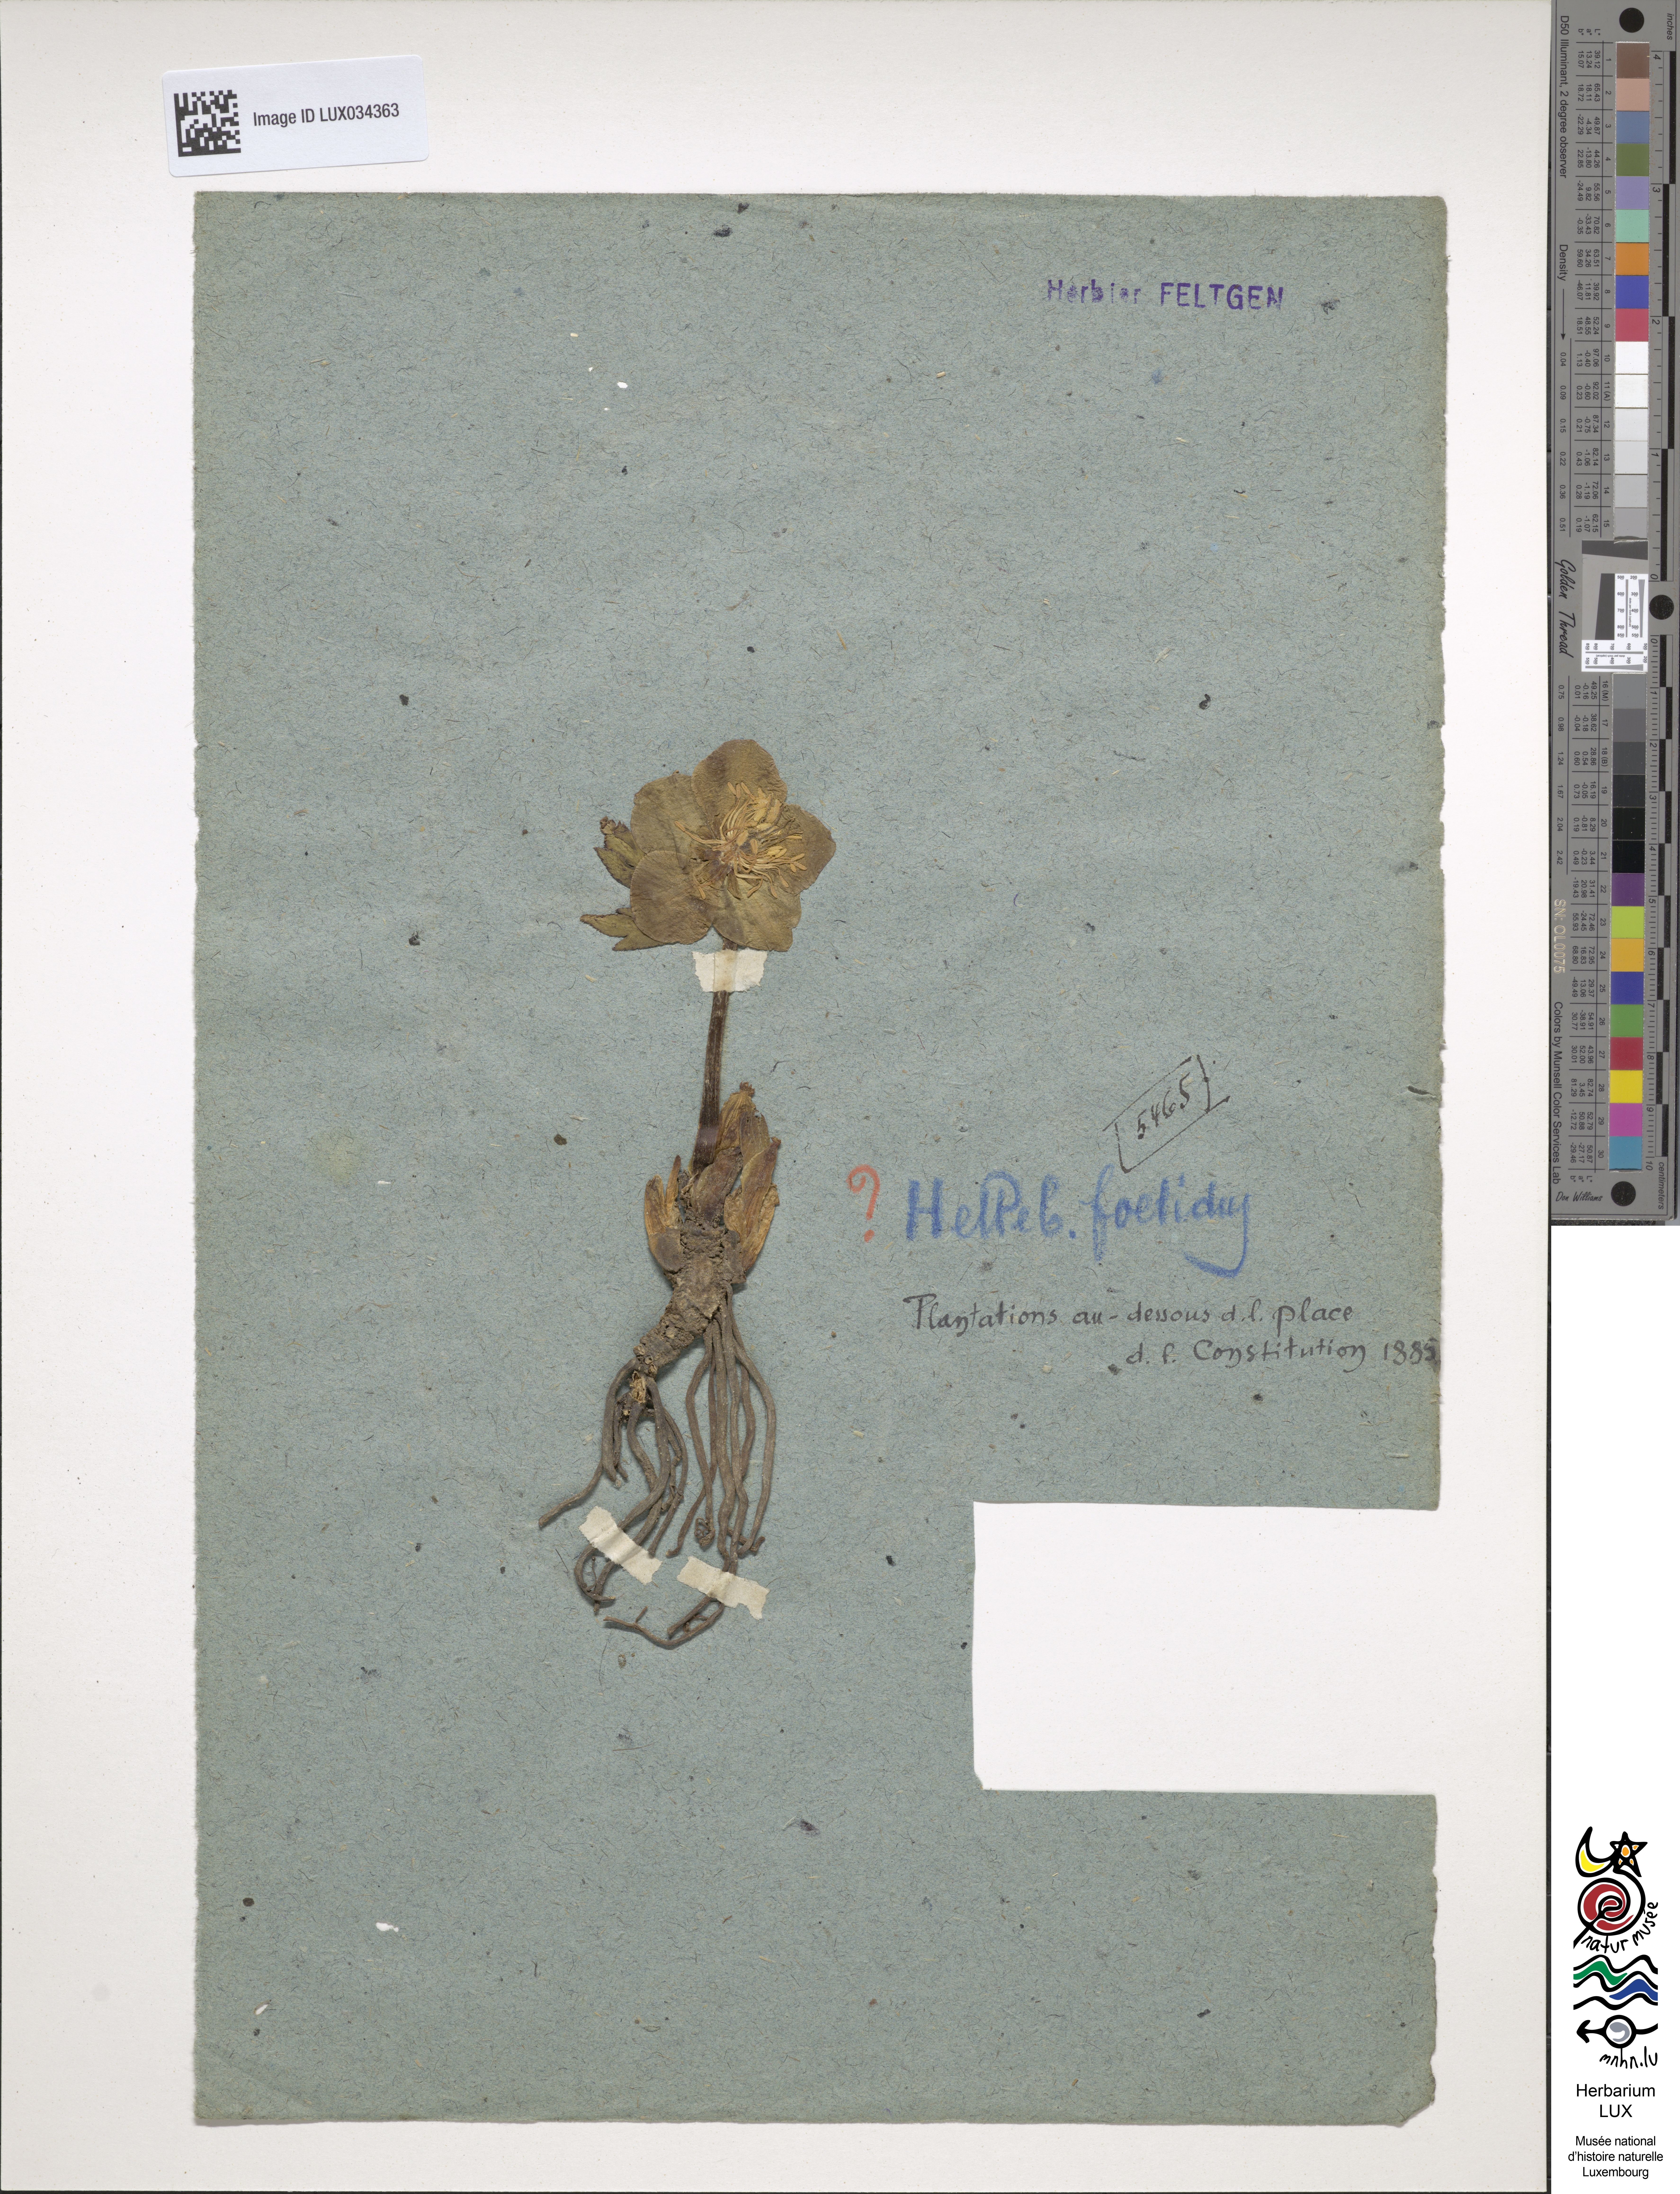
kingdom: Plantae
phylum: Tracheophyta
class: Magnoliopsida
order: Ranunculales
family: Ranunculaceae
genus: Helleborus
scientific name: Helleborus foetidus
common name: Stinking hellebore
